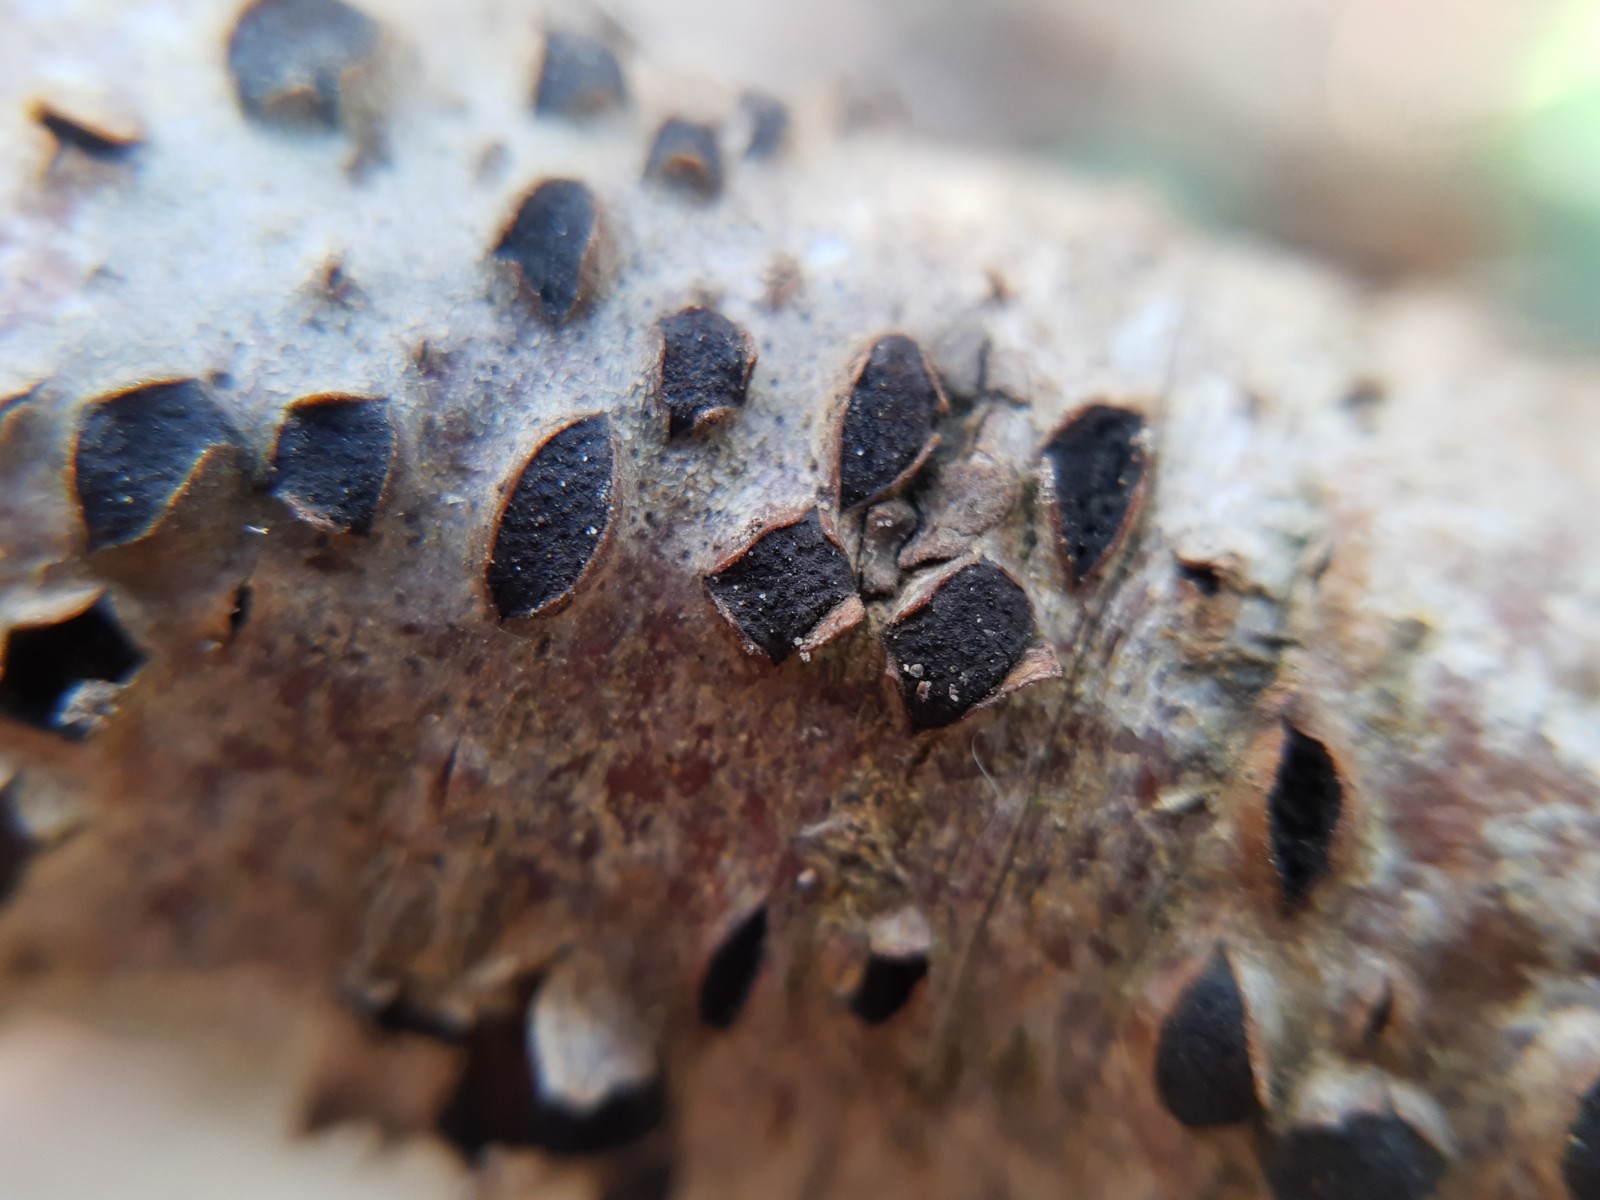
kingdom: Fungi
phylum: Ascomycota
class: Sordariomycetes
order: Xylariales
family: Diatrypaceae
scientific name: Diatrypaceae
